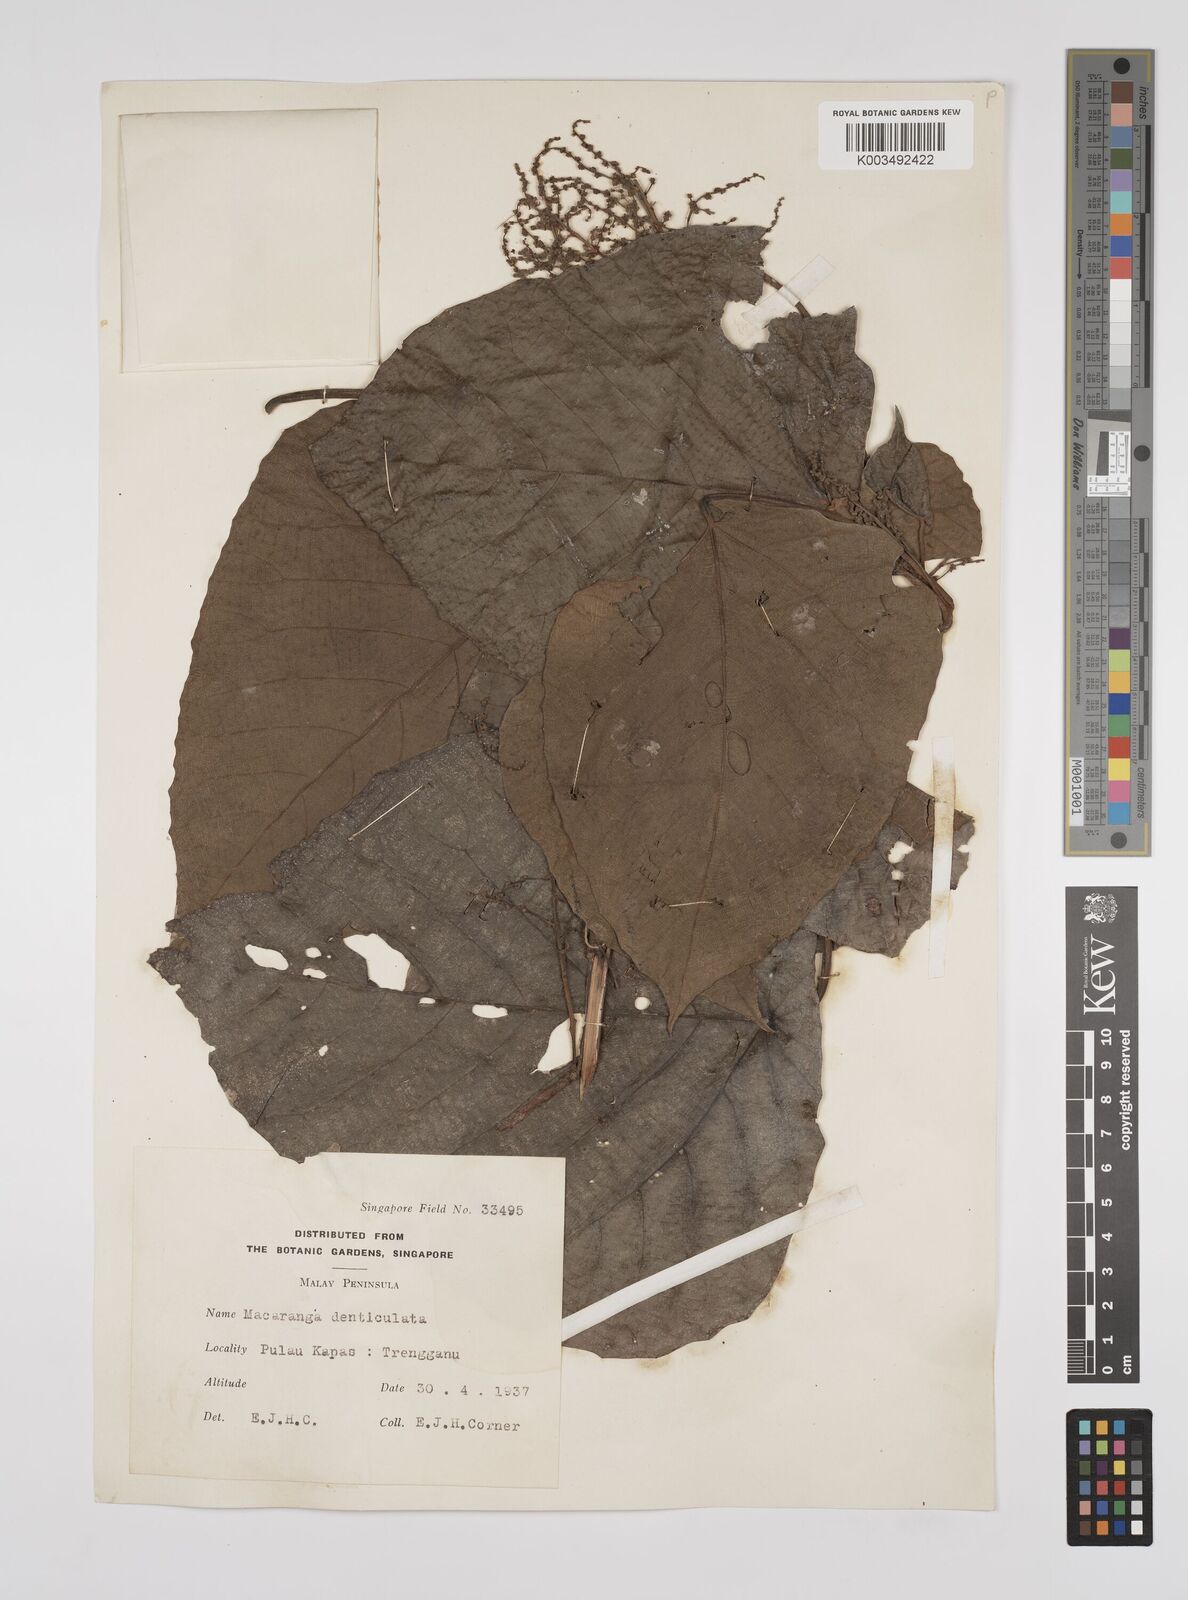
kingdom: Plantae
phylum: Tracheophyta
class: Magnoliopsida
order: Malpighiales
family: Euphorbiaceae
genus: Macaranga
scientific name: Macaranga denticulata
